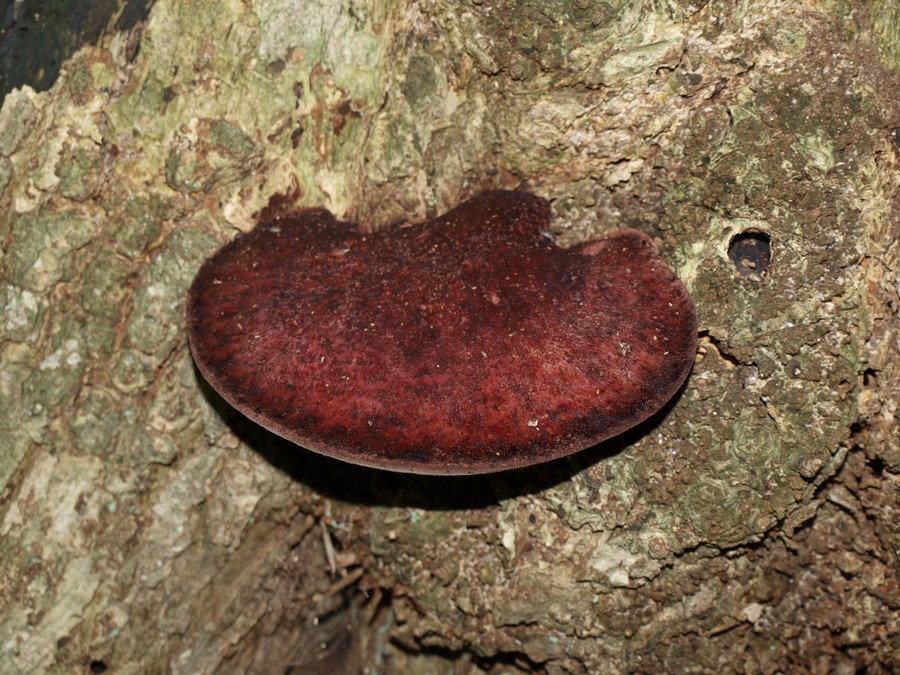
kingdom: Fungi
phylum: Basidiomycota
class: Agaricomycetes
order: Agaricales
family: Fistulinaceae
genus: Fistulina
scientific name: Fistulina hepatica
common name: oksetunge
